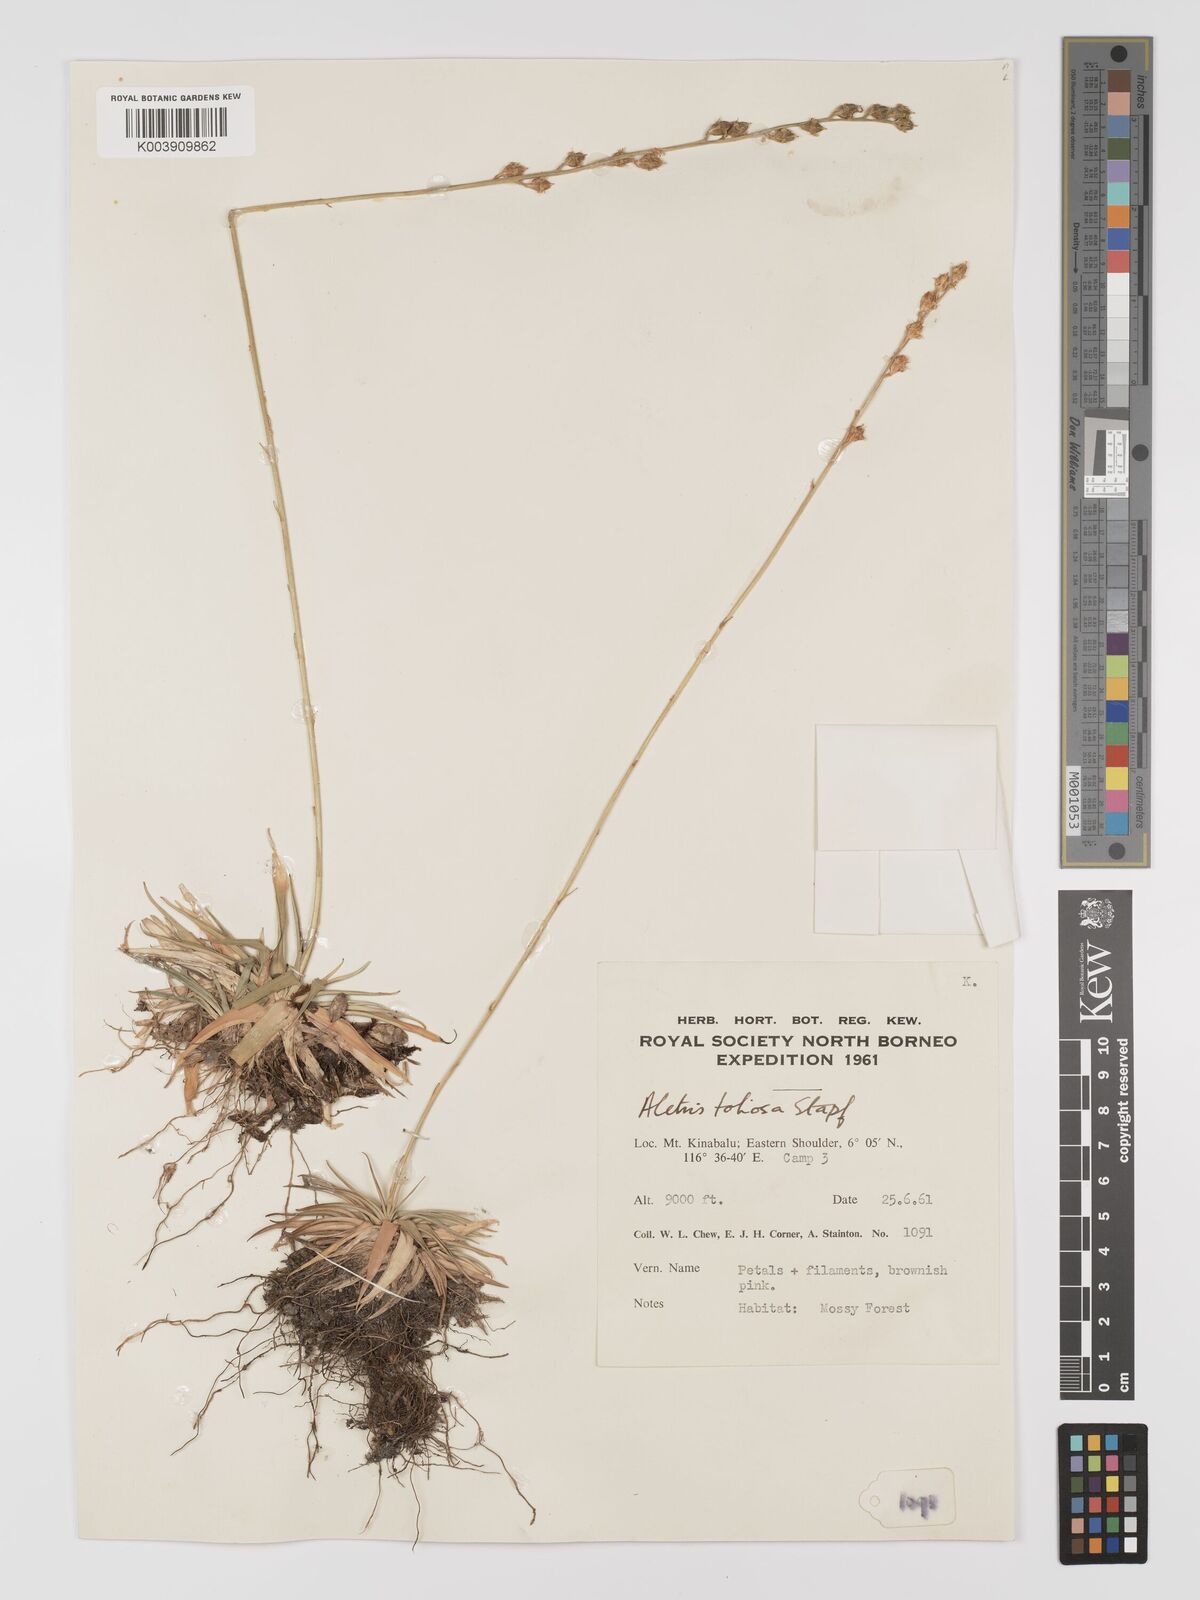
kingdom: Plantae
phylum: Tracheophyta
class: Liliopsida
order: Dioscoreales
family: Nartheciaceae
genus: Aletris
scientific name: Aletris foliolosa
